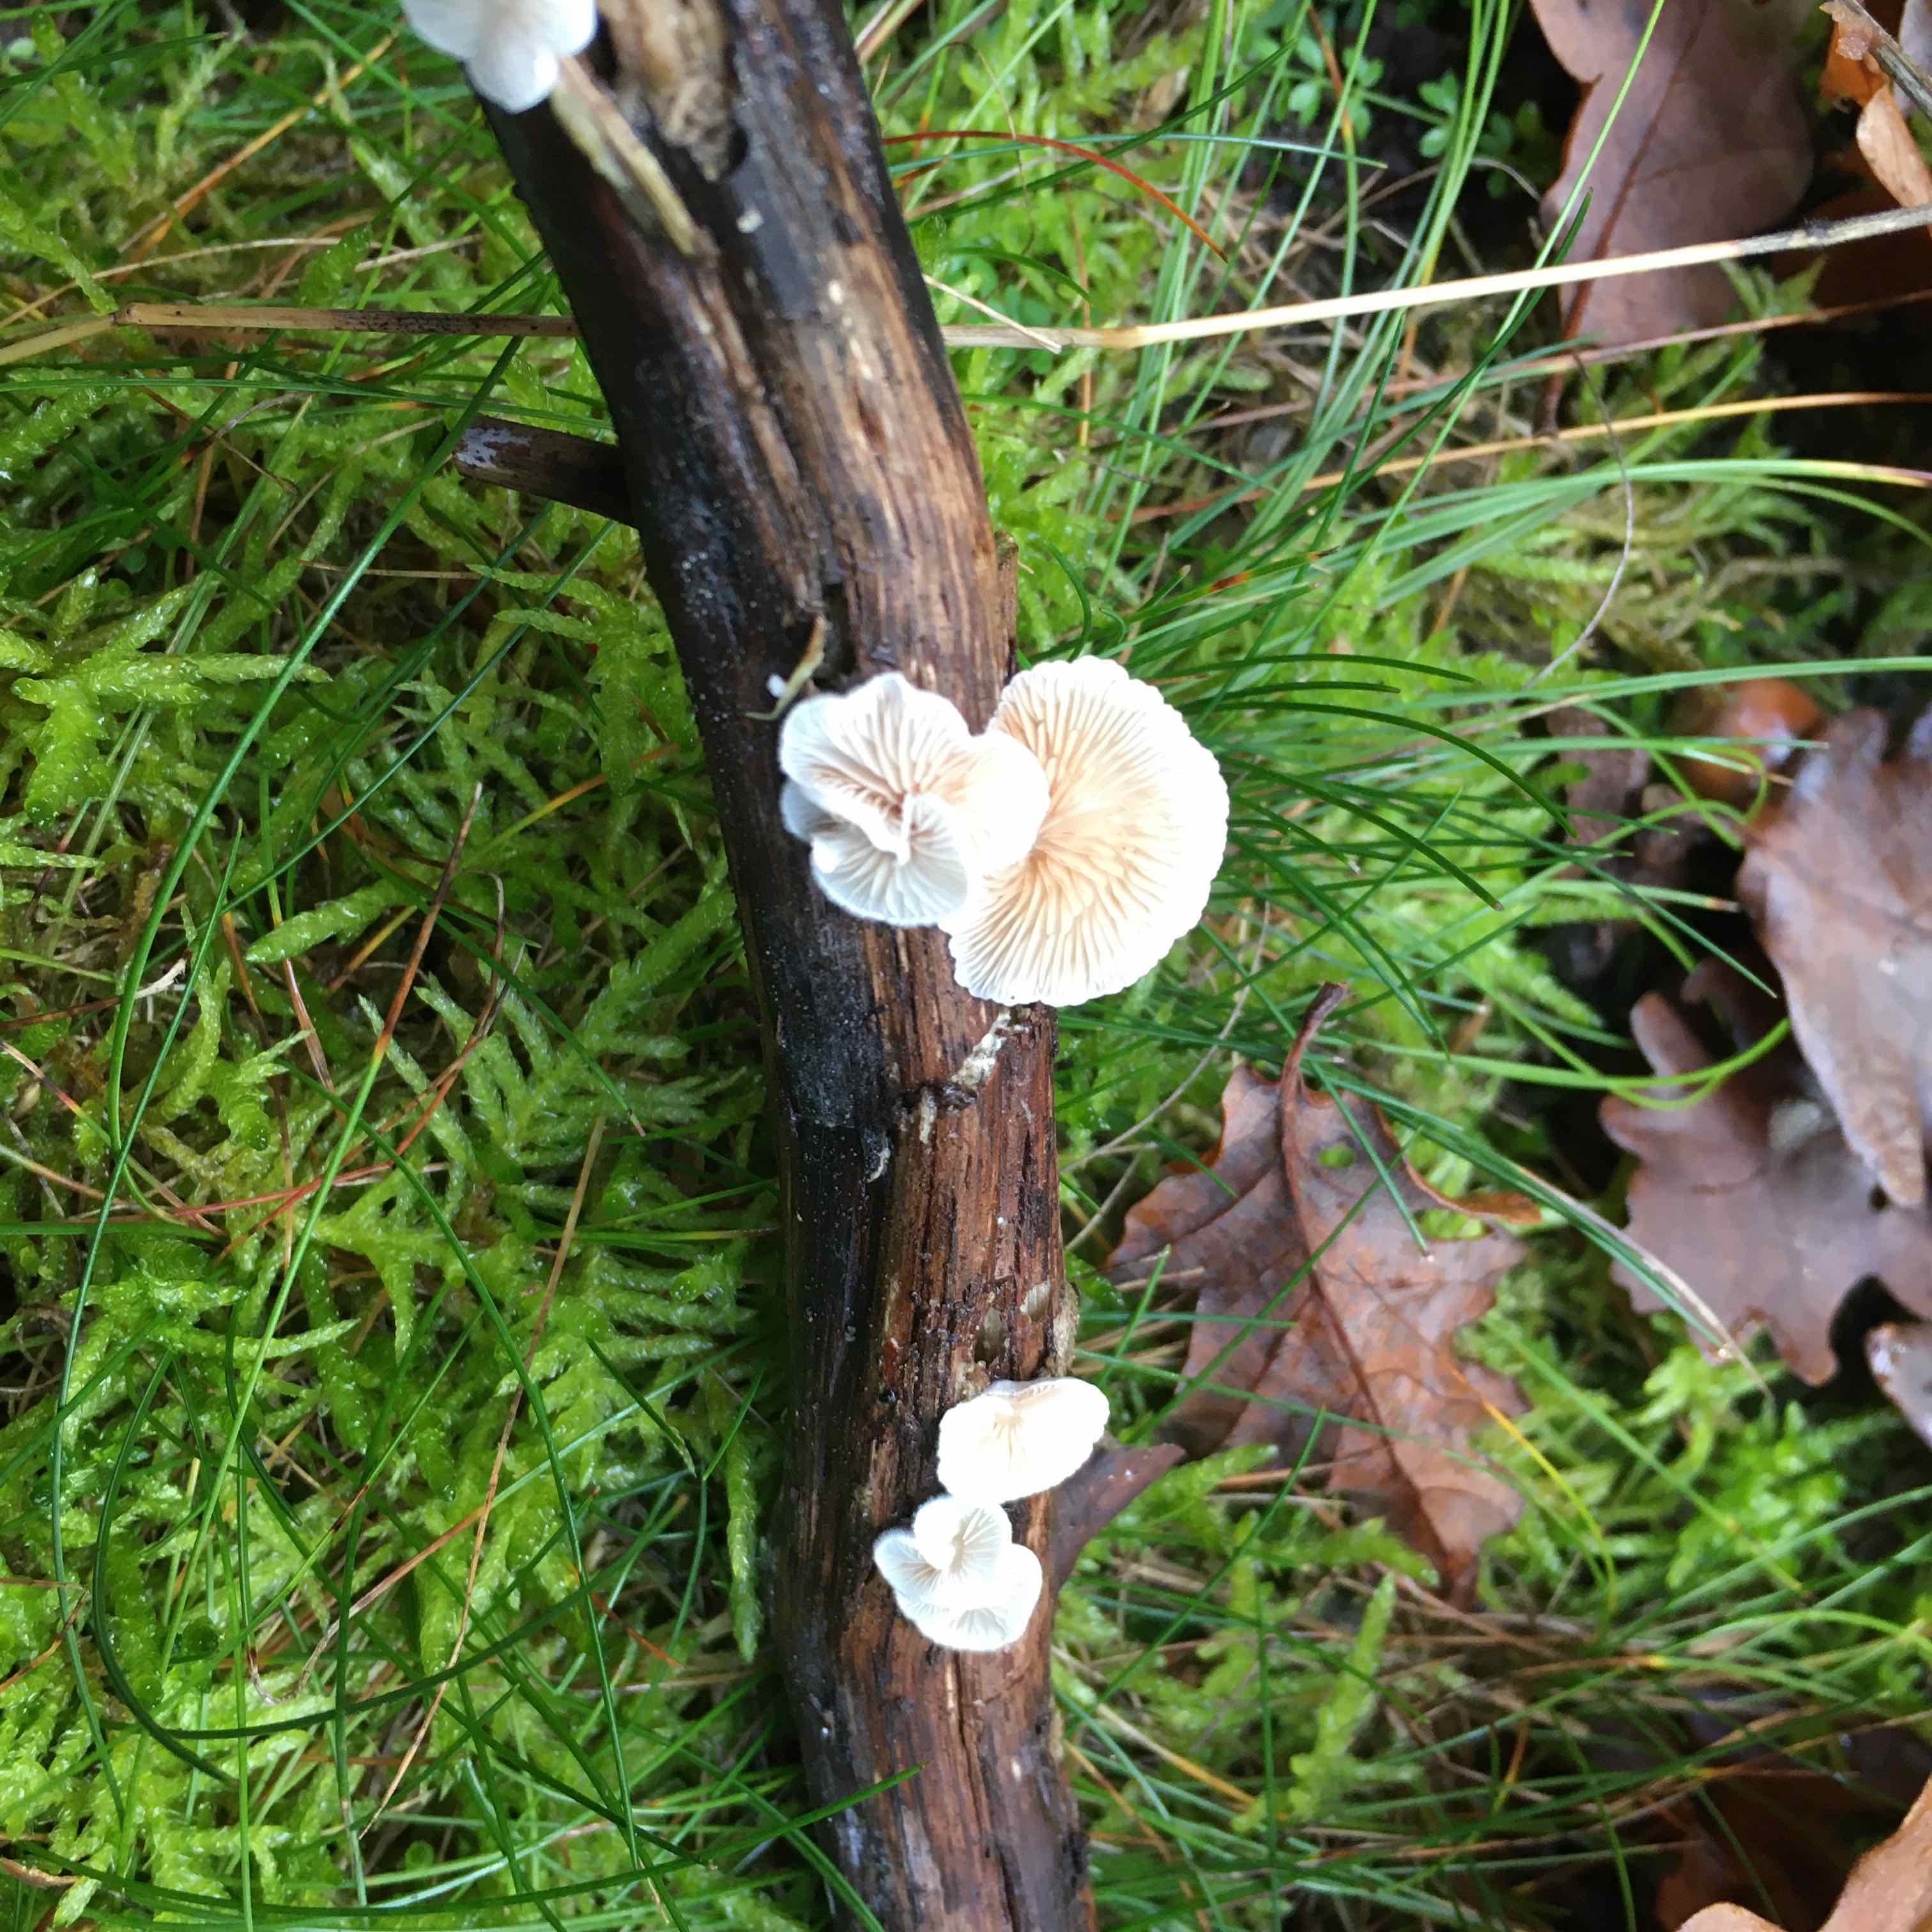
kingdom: Fungi
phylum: Basidiomycota
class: Agaricomycetes
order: Agaricales
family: Crepidotaceae
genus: Crepidotus
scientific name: Crepidotus
